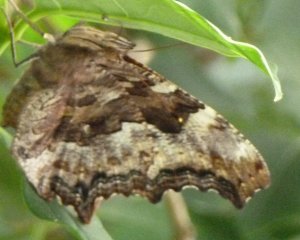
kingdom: Animalia
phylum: Arthropoda
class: Insecta
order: Lepidoptera
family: Nymphalidae
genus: Polygonia
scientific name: Polygonia vaualbum
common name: Compton Tortoiseshell
